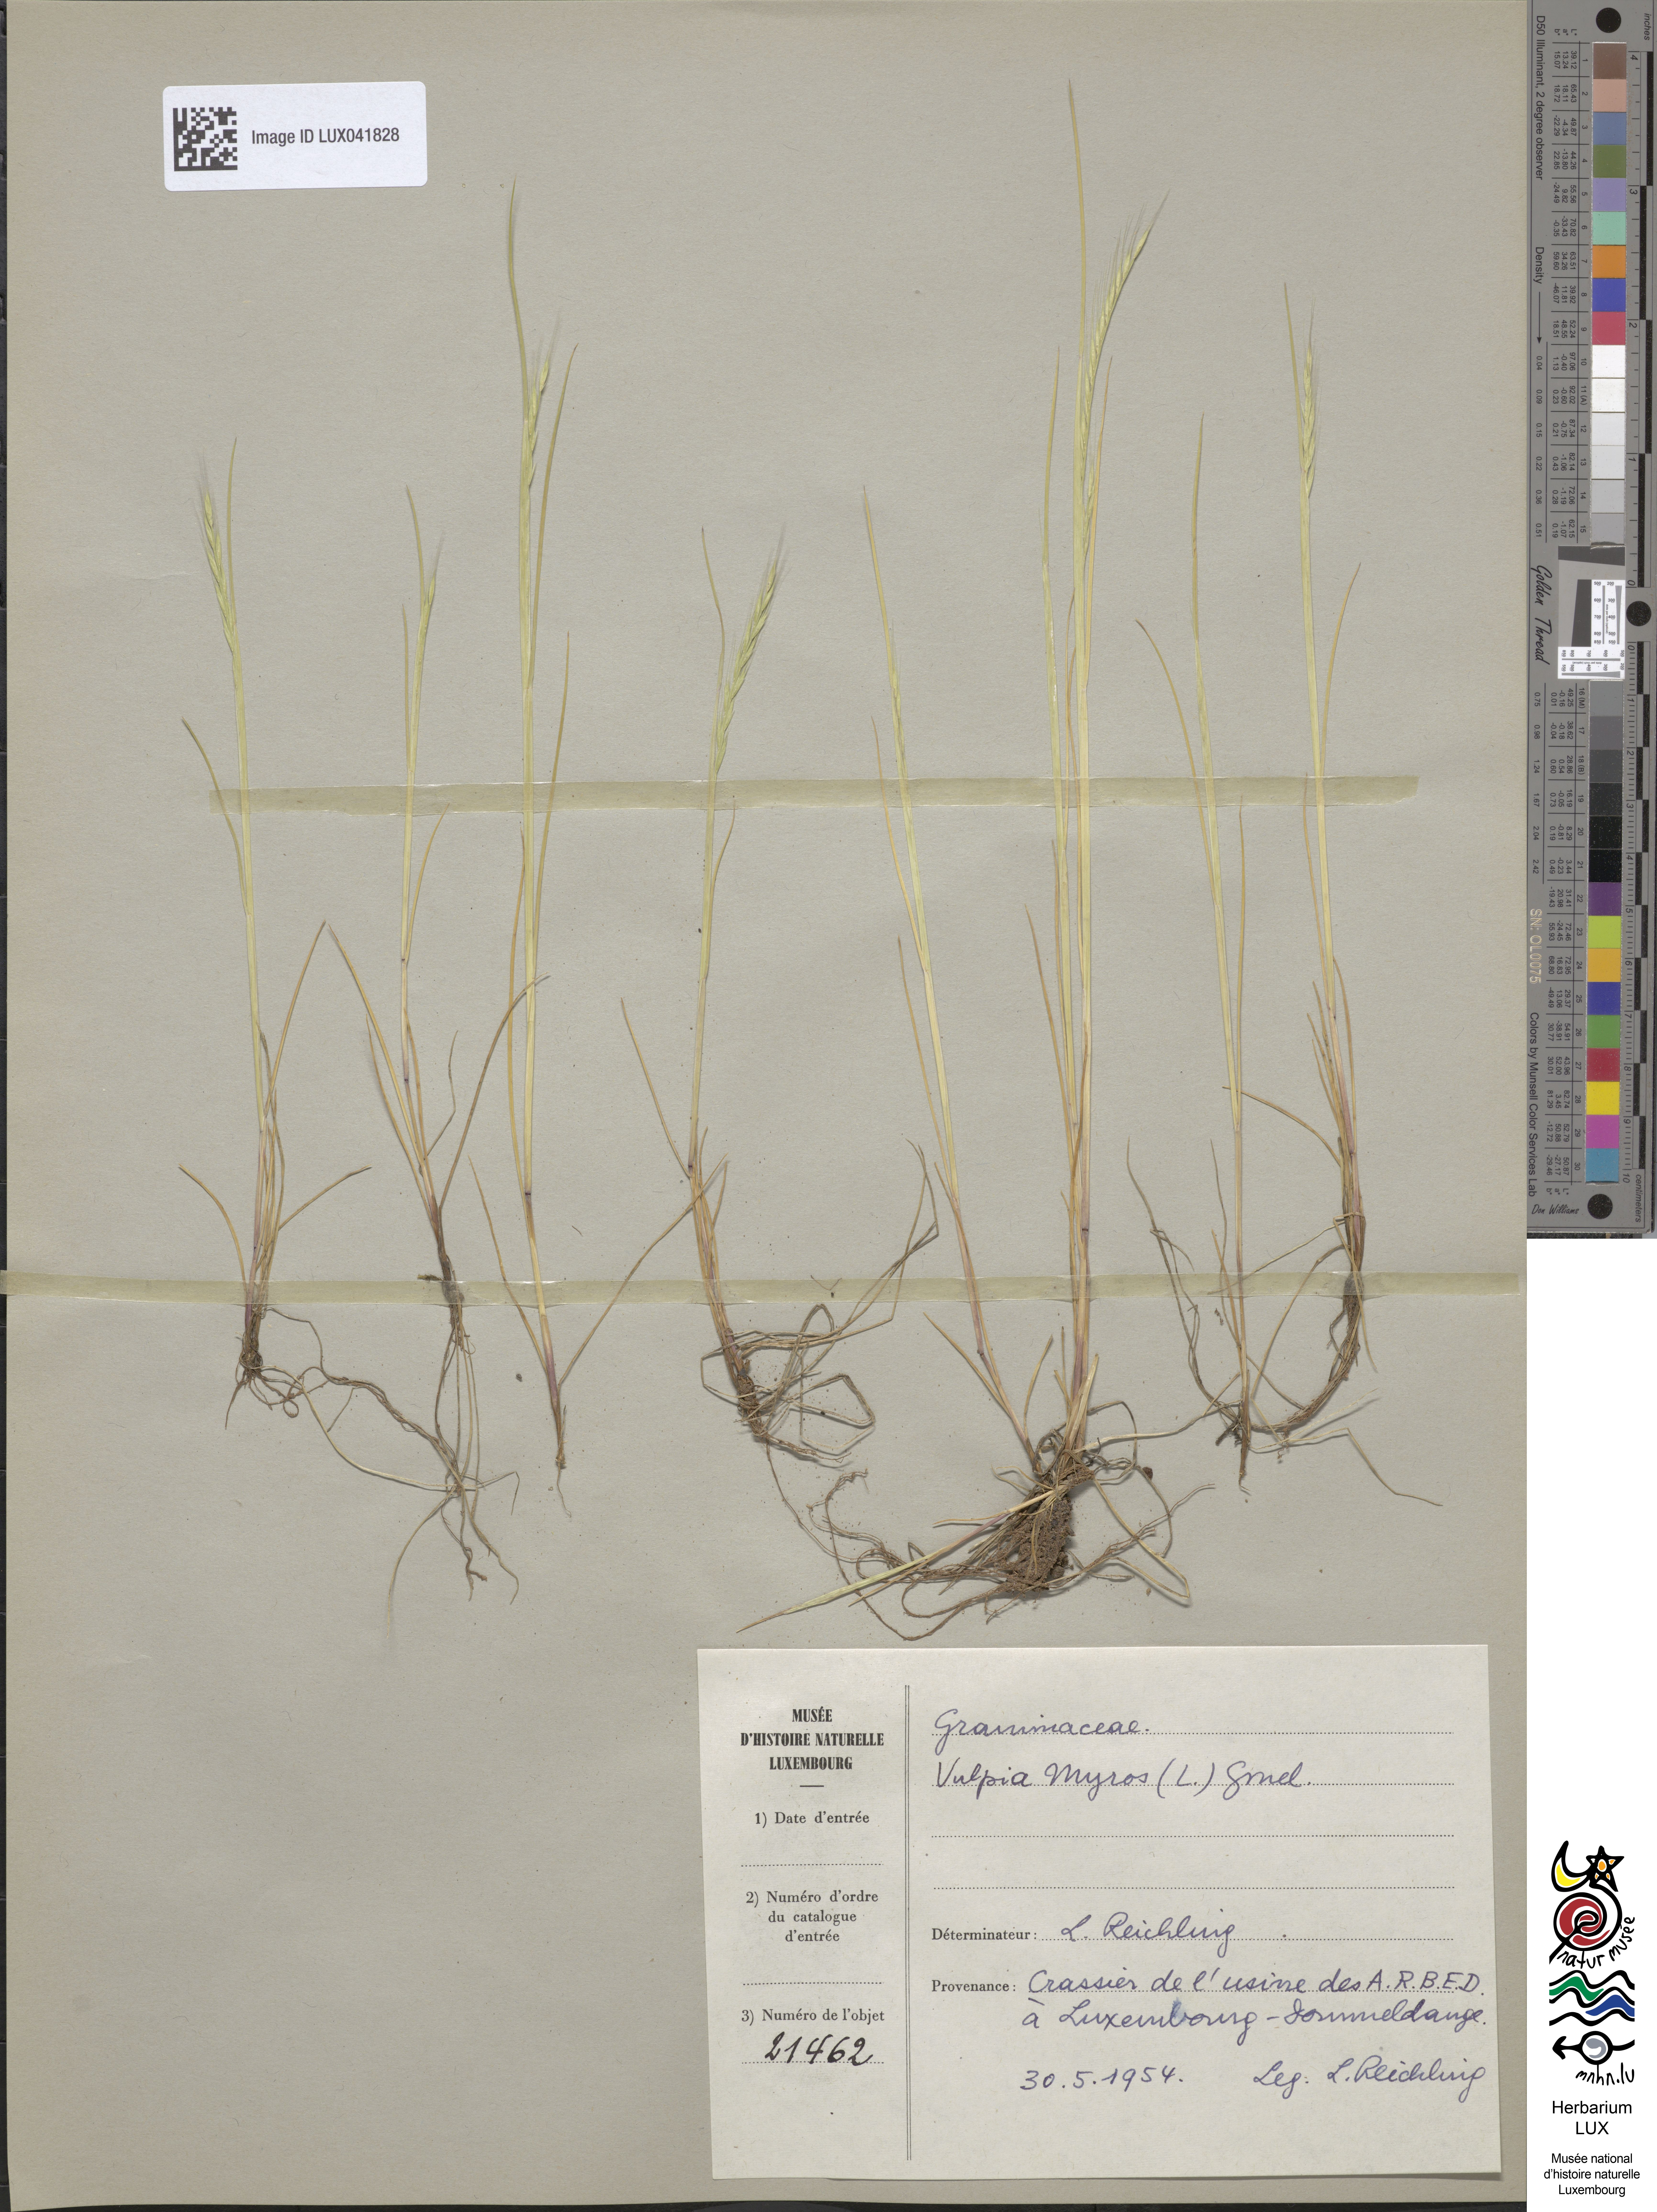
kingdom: Plantae
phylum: Tracheophyta
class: Liliopsida
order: Poales
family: Poaceae
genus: Festuca
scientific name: Festuca myuros
